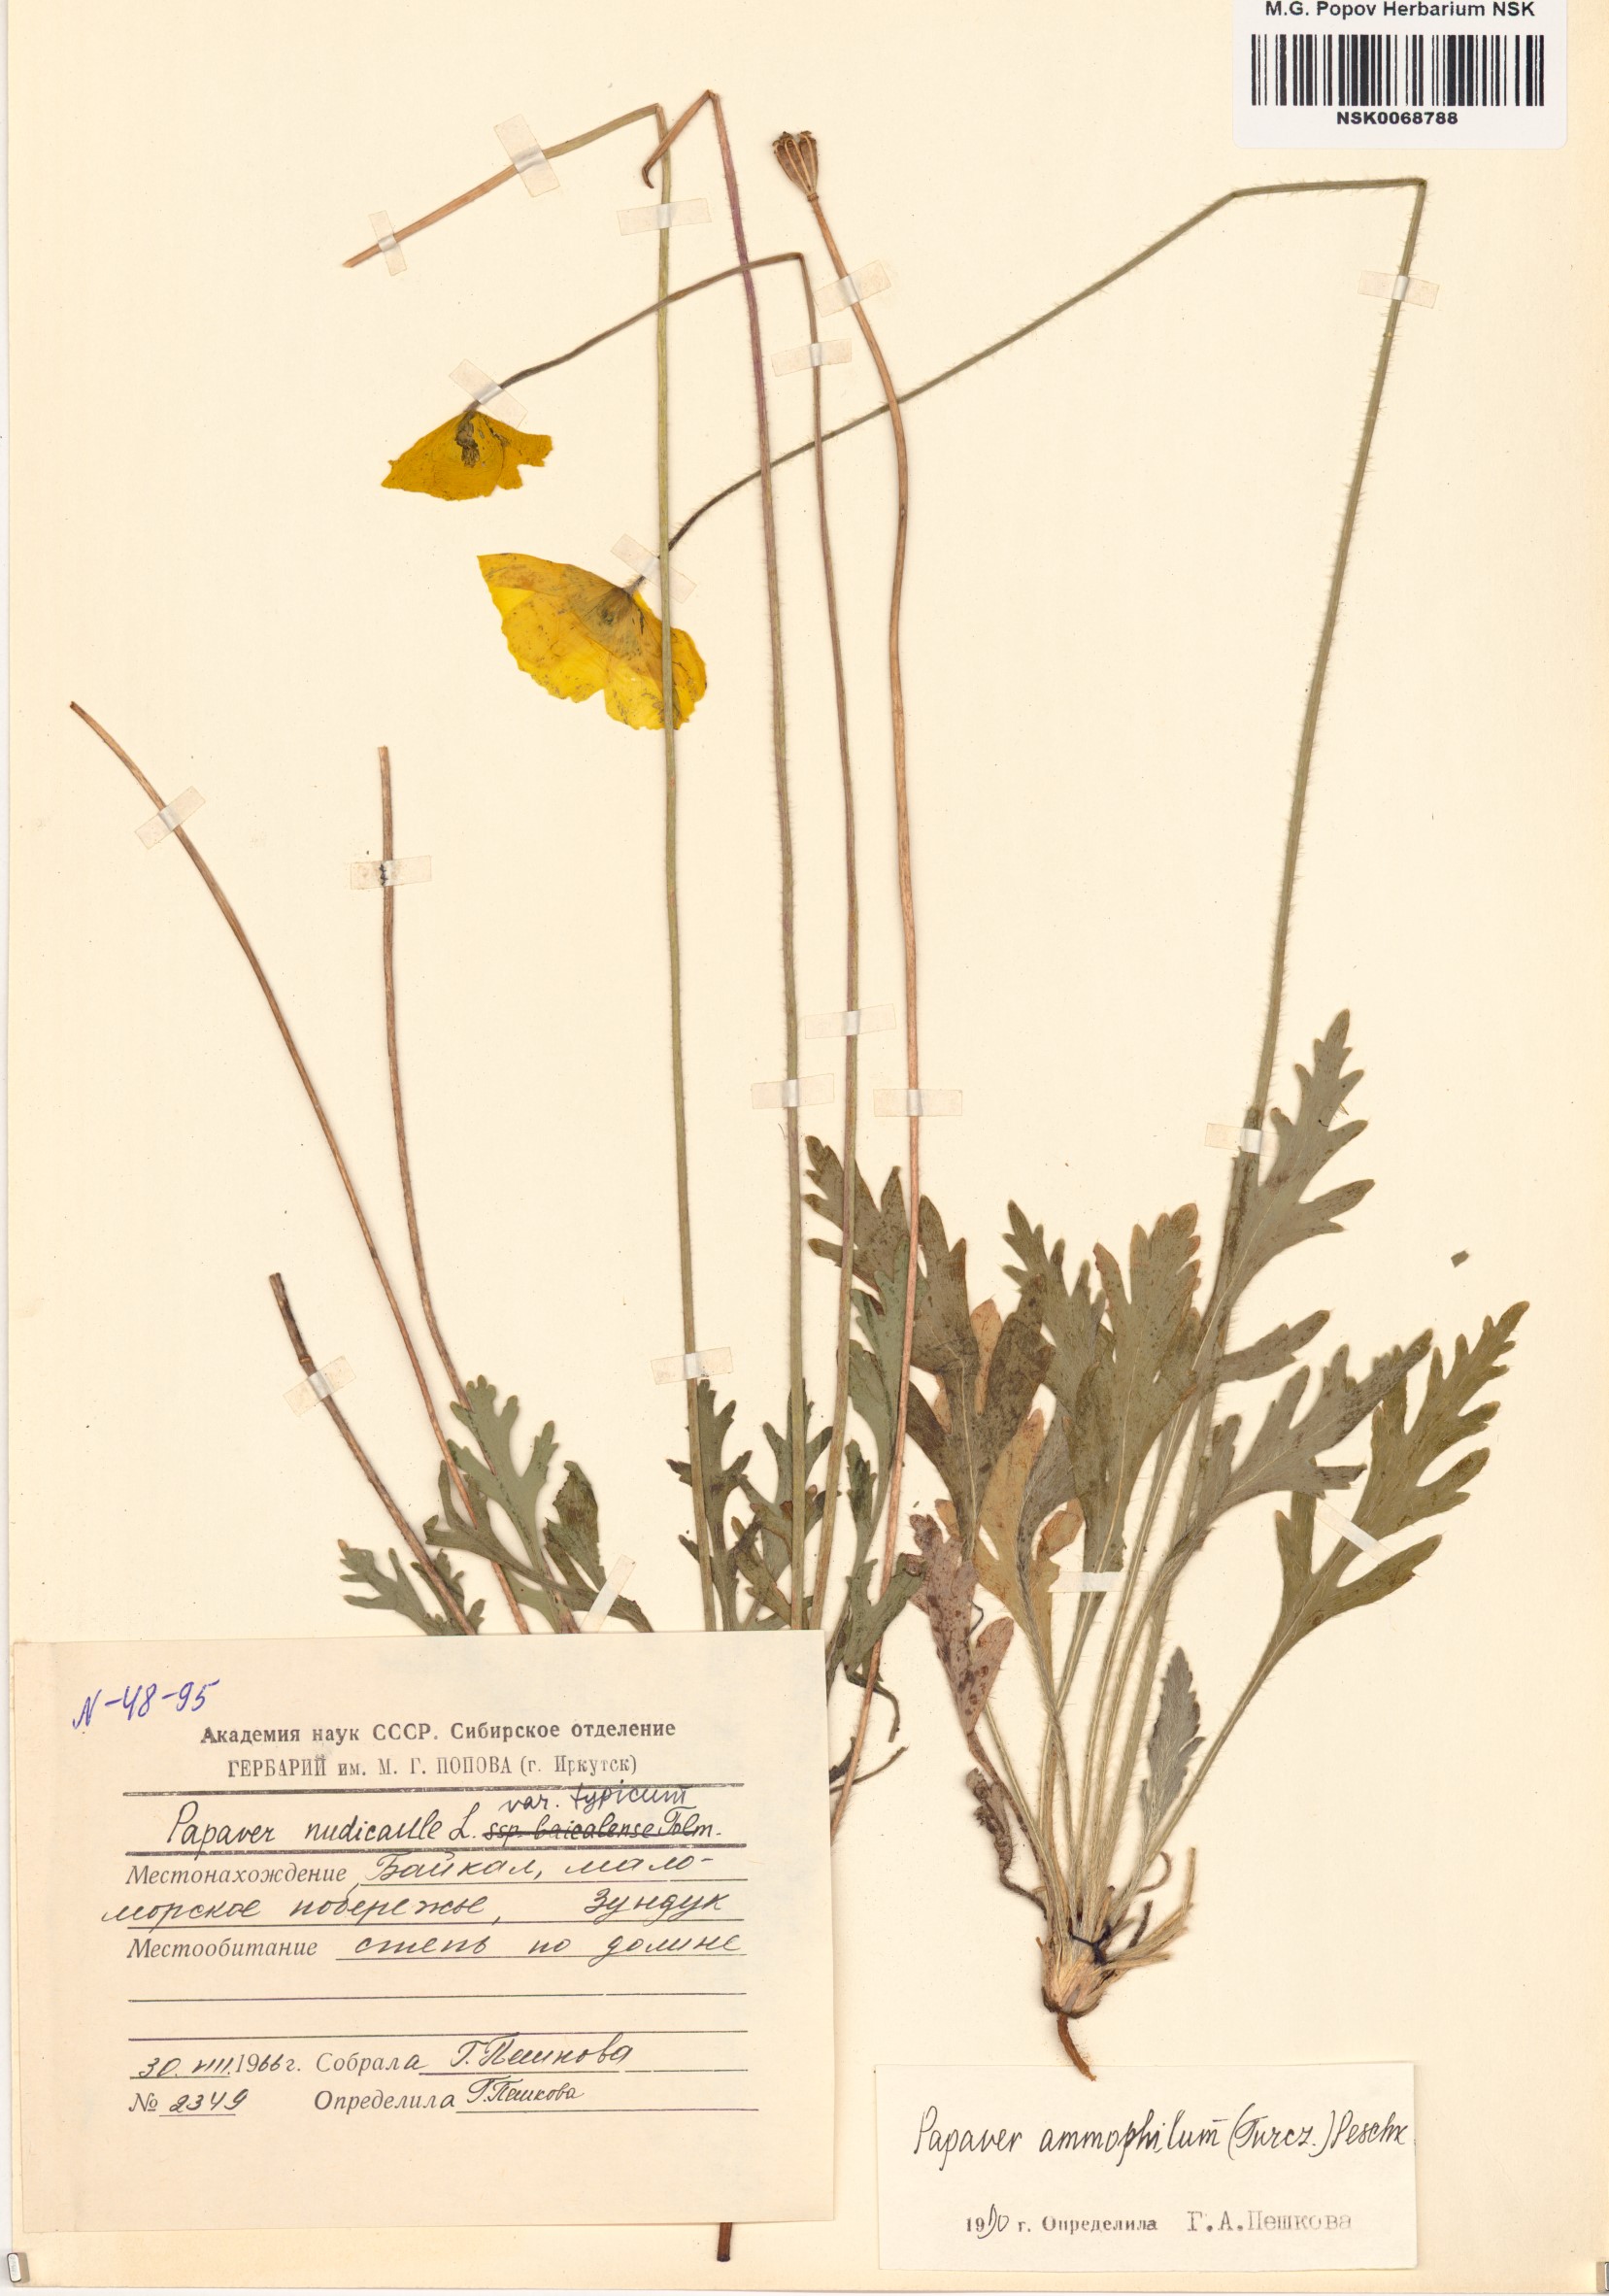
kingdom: Plantae
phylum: Tracheophyta
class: Magnoliopsida
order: Ranunculales
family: Papaveraceae
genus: Papaver
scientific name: Papaver nudicaule
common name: Arctic poppy
